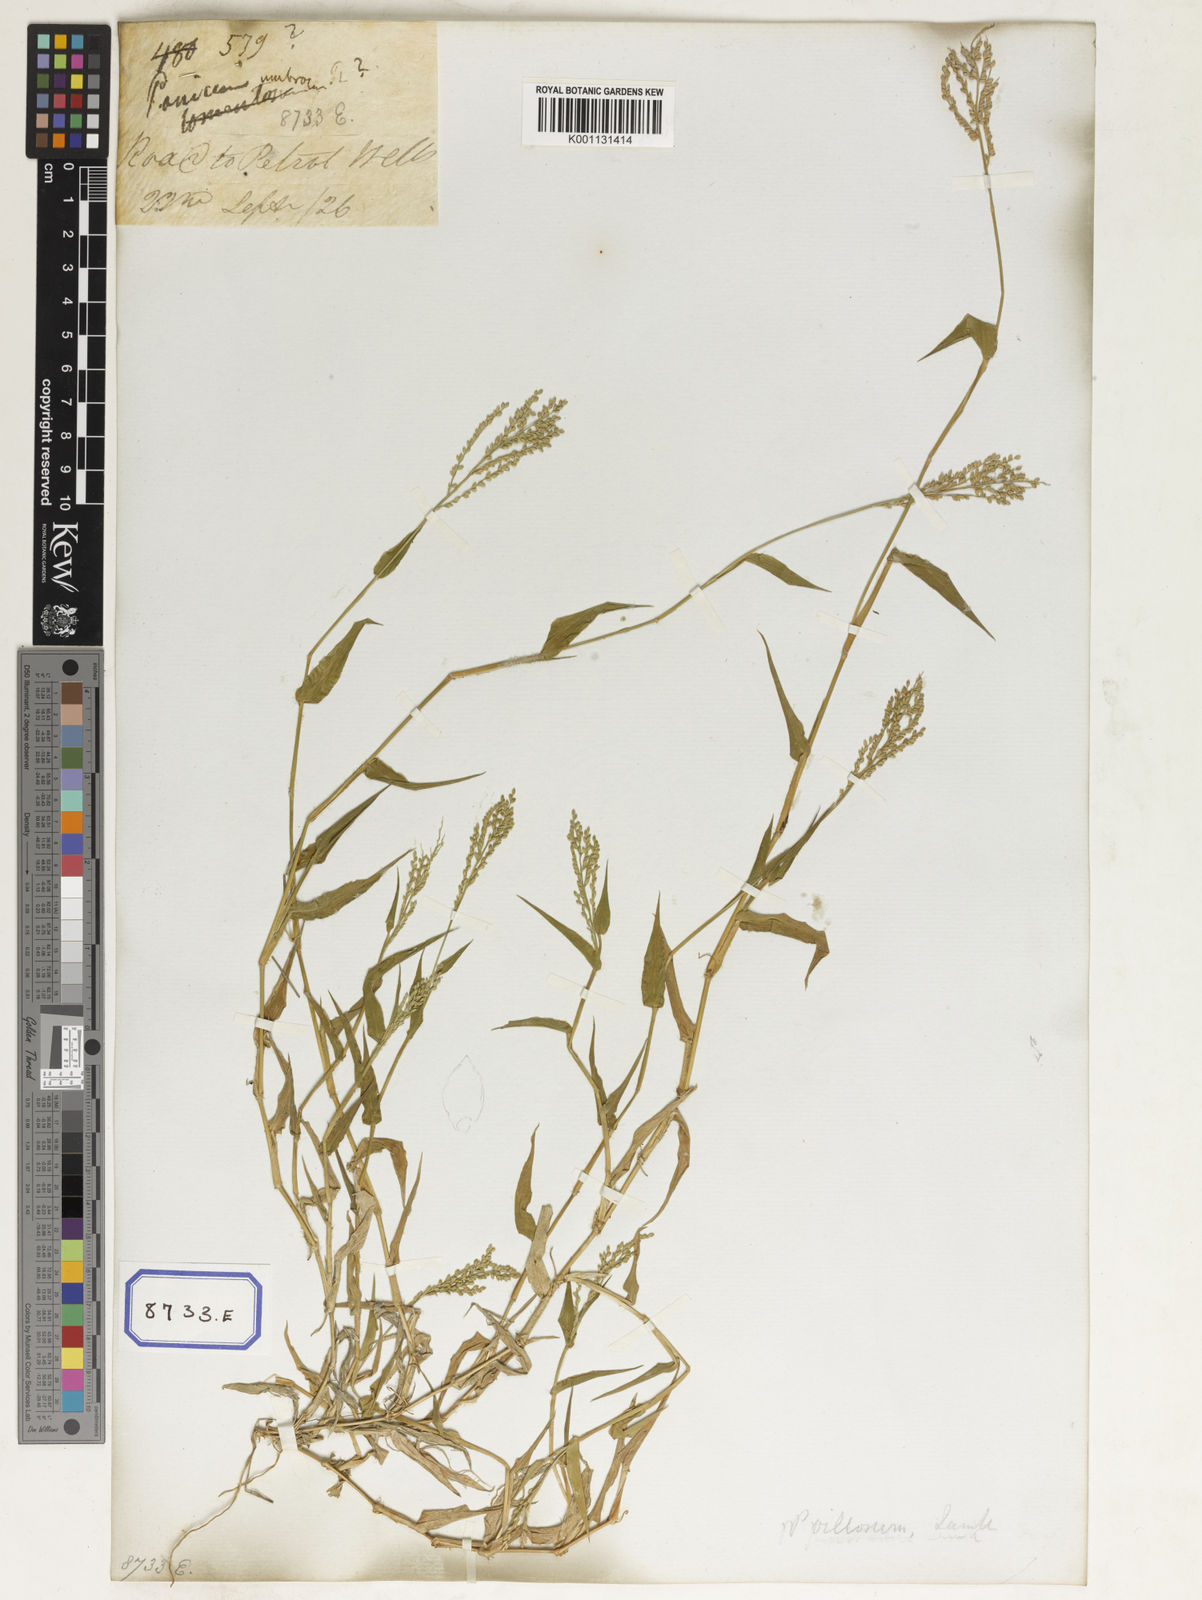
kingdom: Plantae
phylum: Tracheophyta
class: Liliopsida
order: Poales
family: Poaceae
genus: Panicum
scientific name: Panicum
